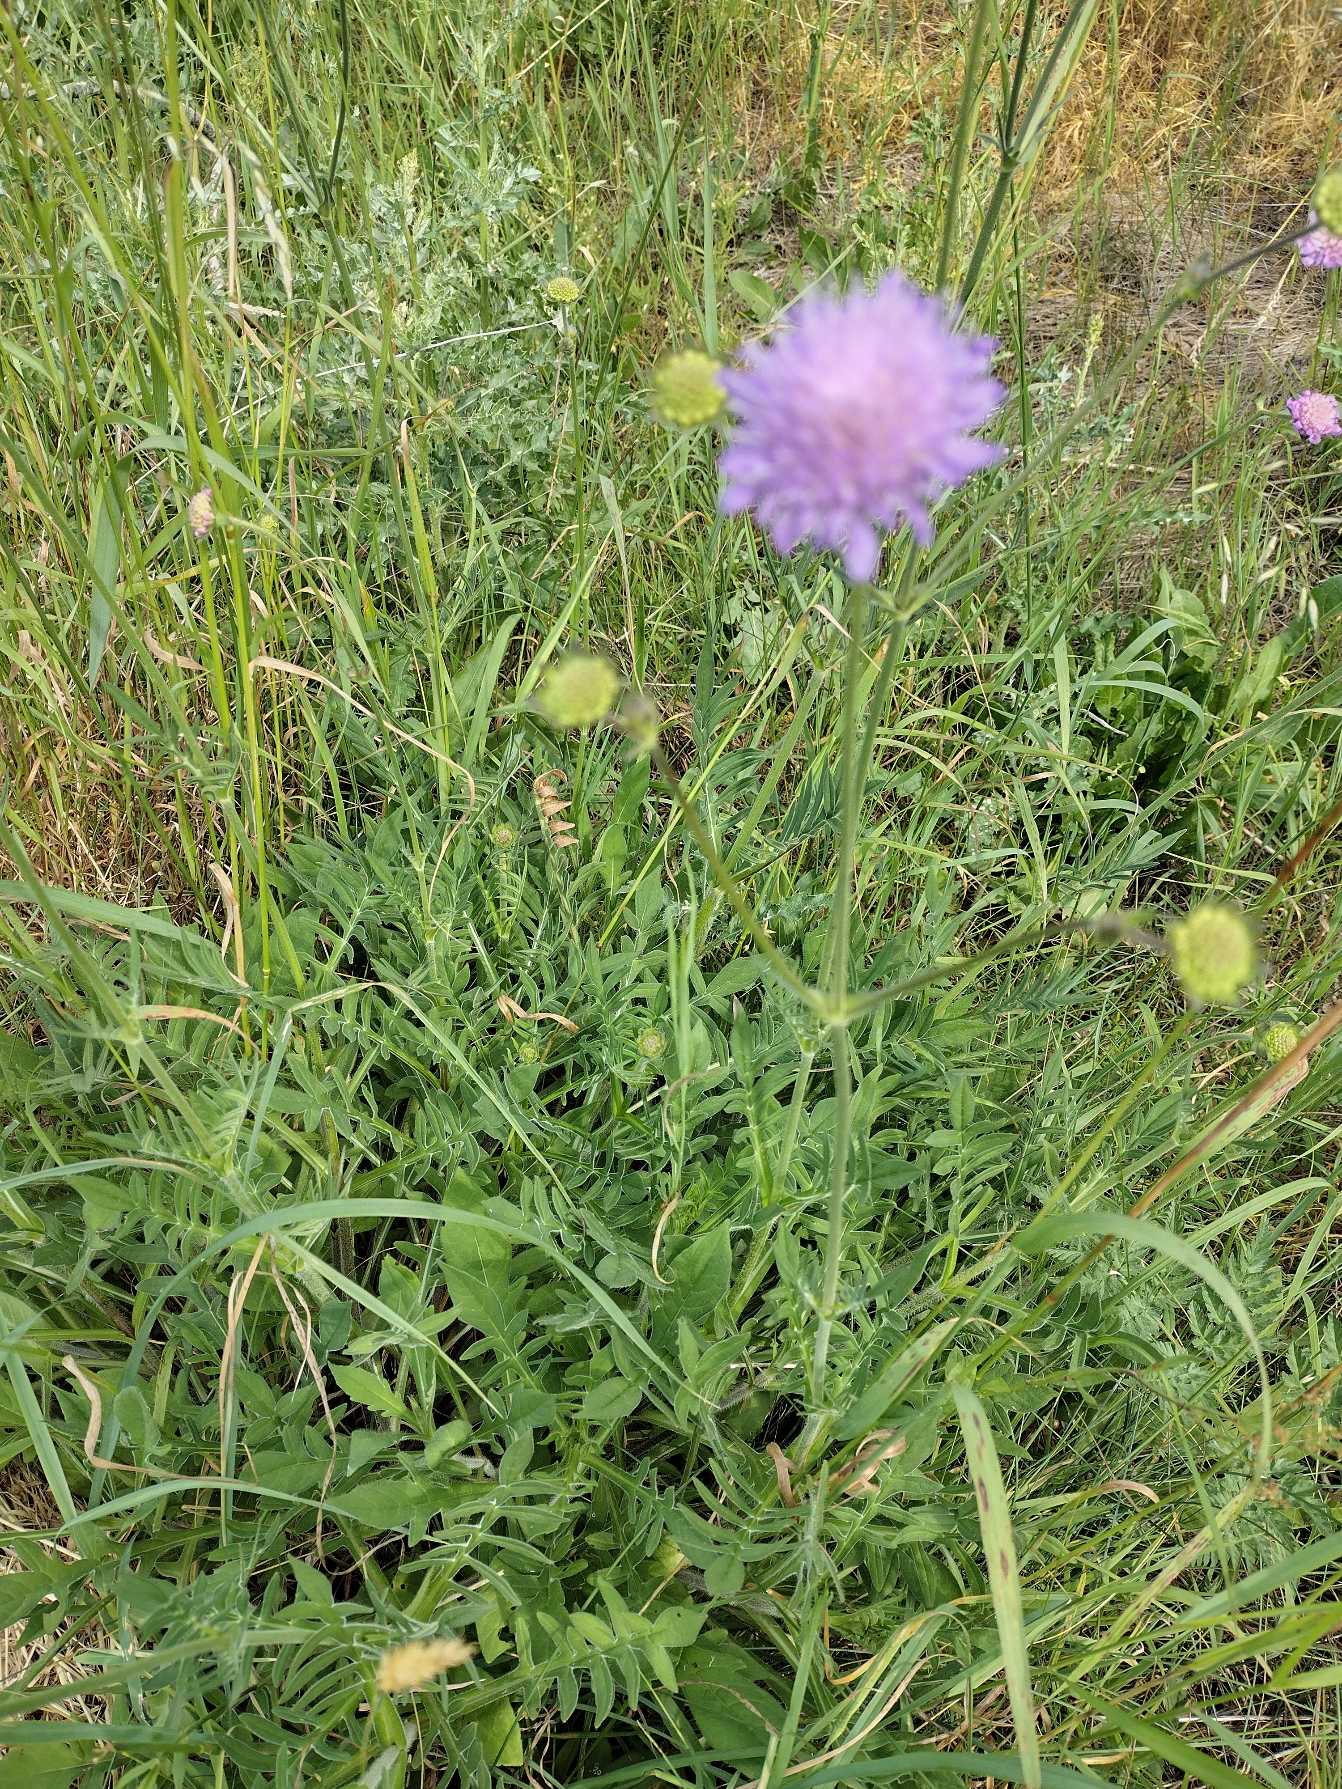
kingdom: Plantae
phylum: Tracheophyta
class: Magnoliopsida
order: Dipsacales
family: Caprifoliaceae
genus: Knautia
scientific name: Knautia arvensis
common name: Blåhat
